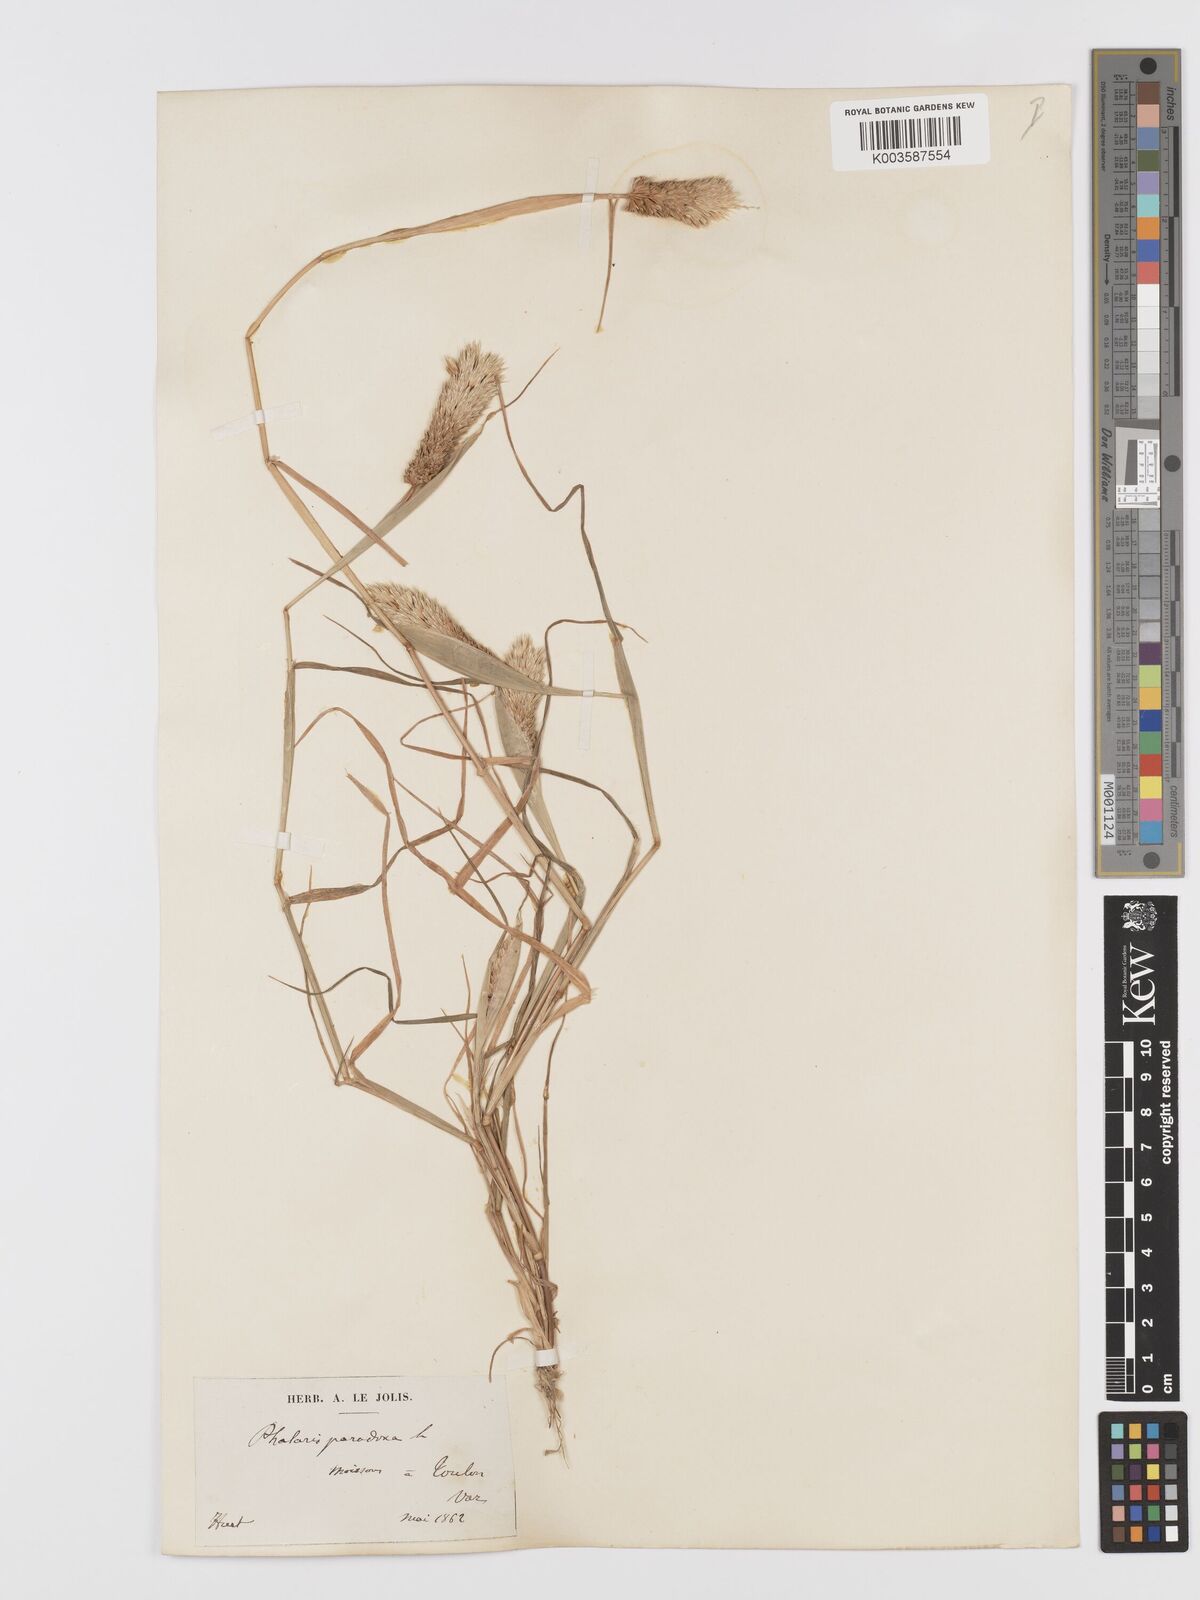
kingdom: Plantae
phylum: Tracheophyta
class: Liliopsida
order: Poales
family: Poaceae
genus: Phalaris
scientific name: Phalaris paradoxa
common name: Awned canary-grass
